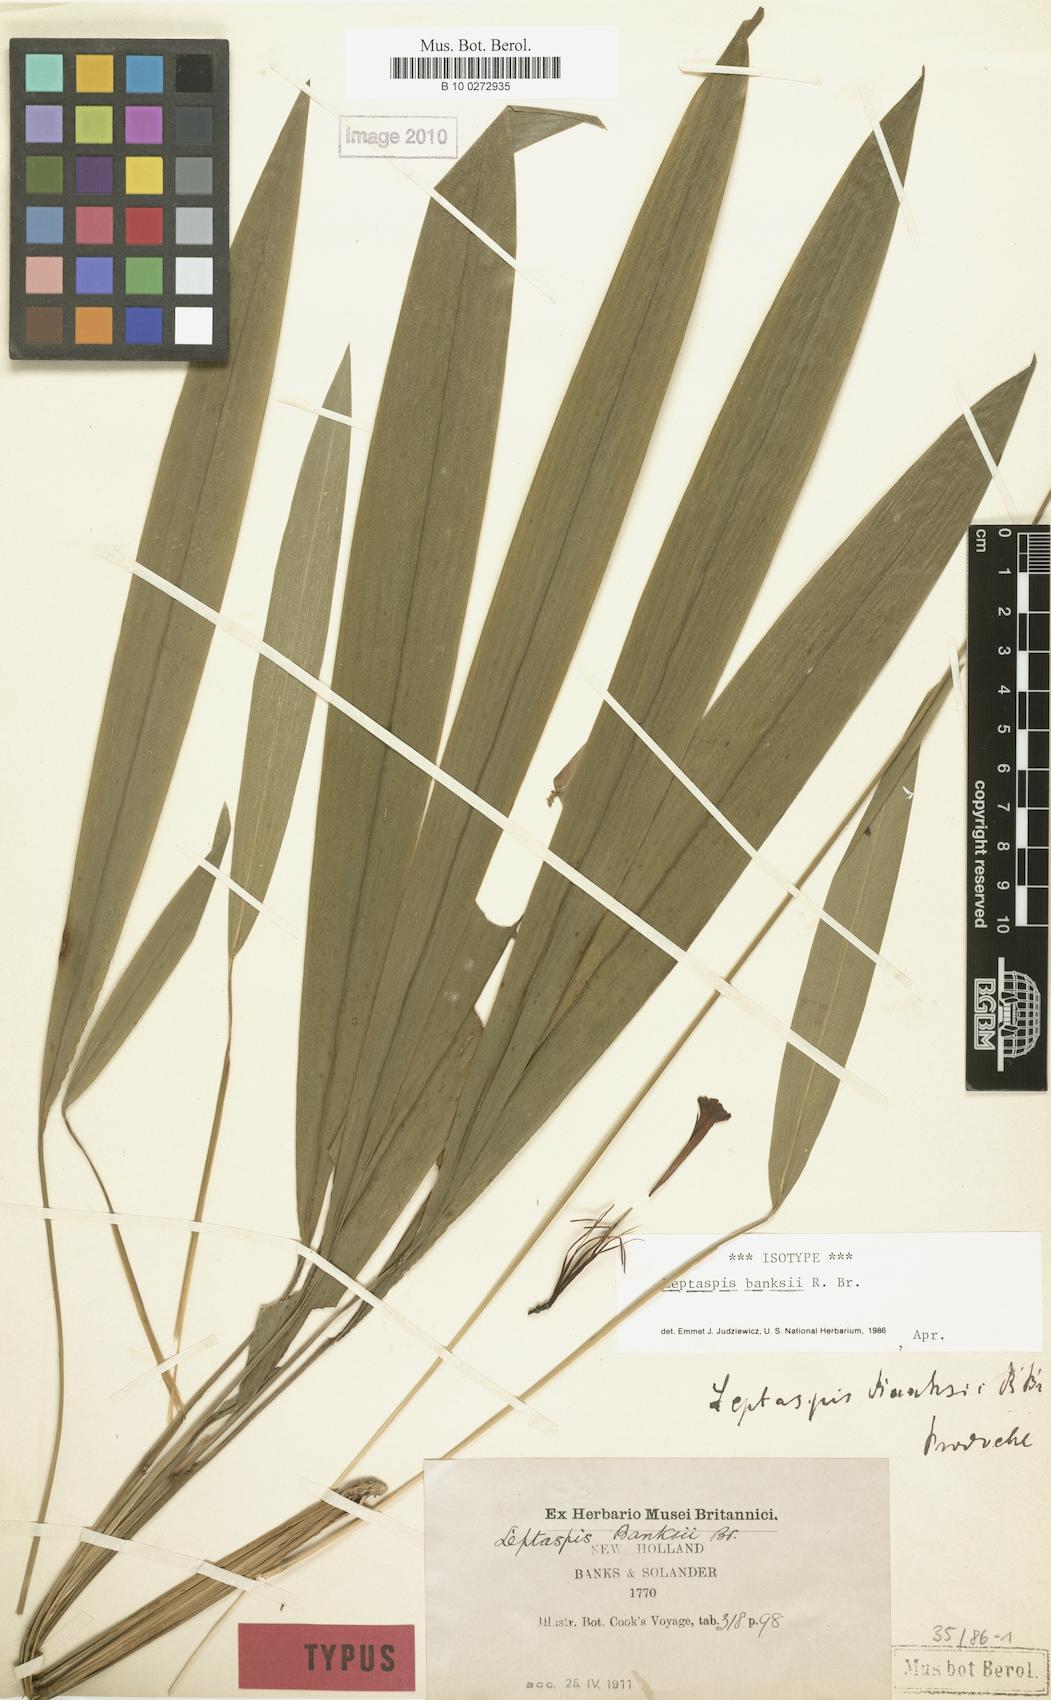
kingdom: Plantae
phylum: Tracheophyta
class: Liliopsida
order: Poales
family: Poaceae
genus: Leptaspis
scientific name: Leptaspis banksii
